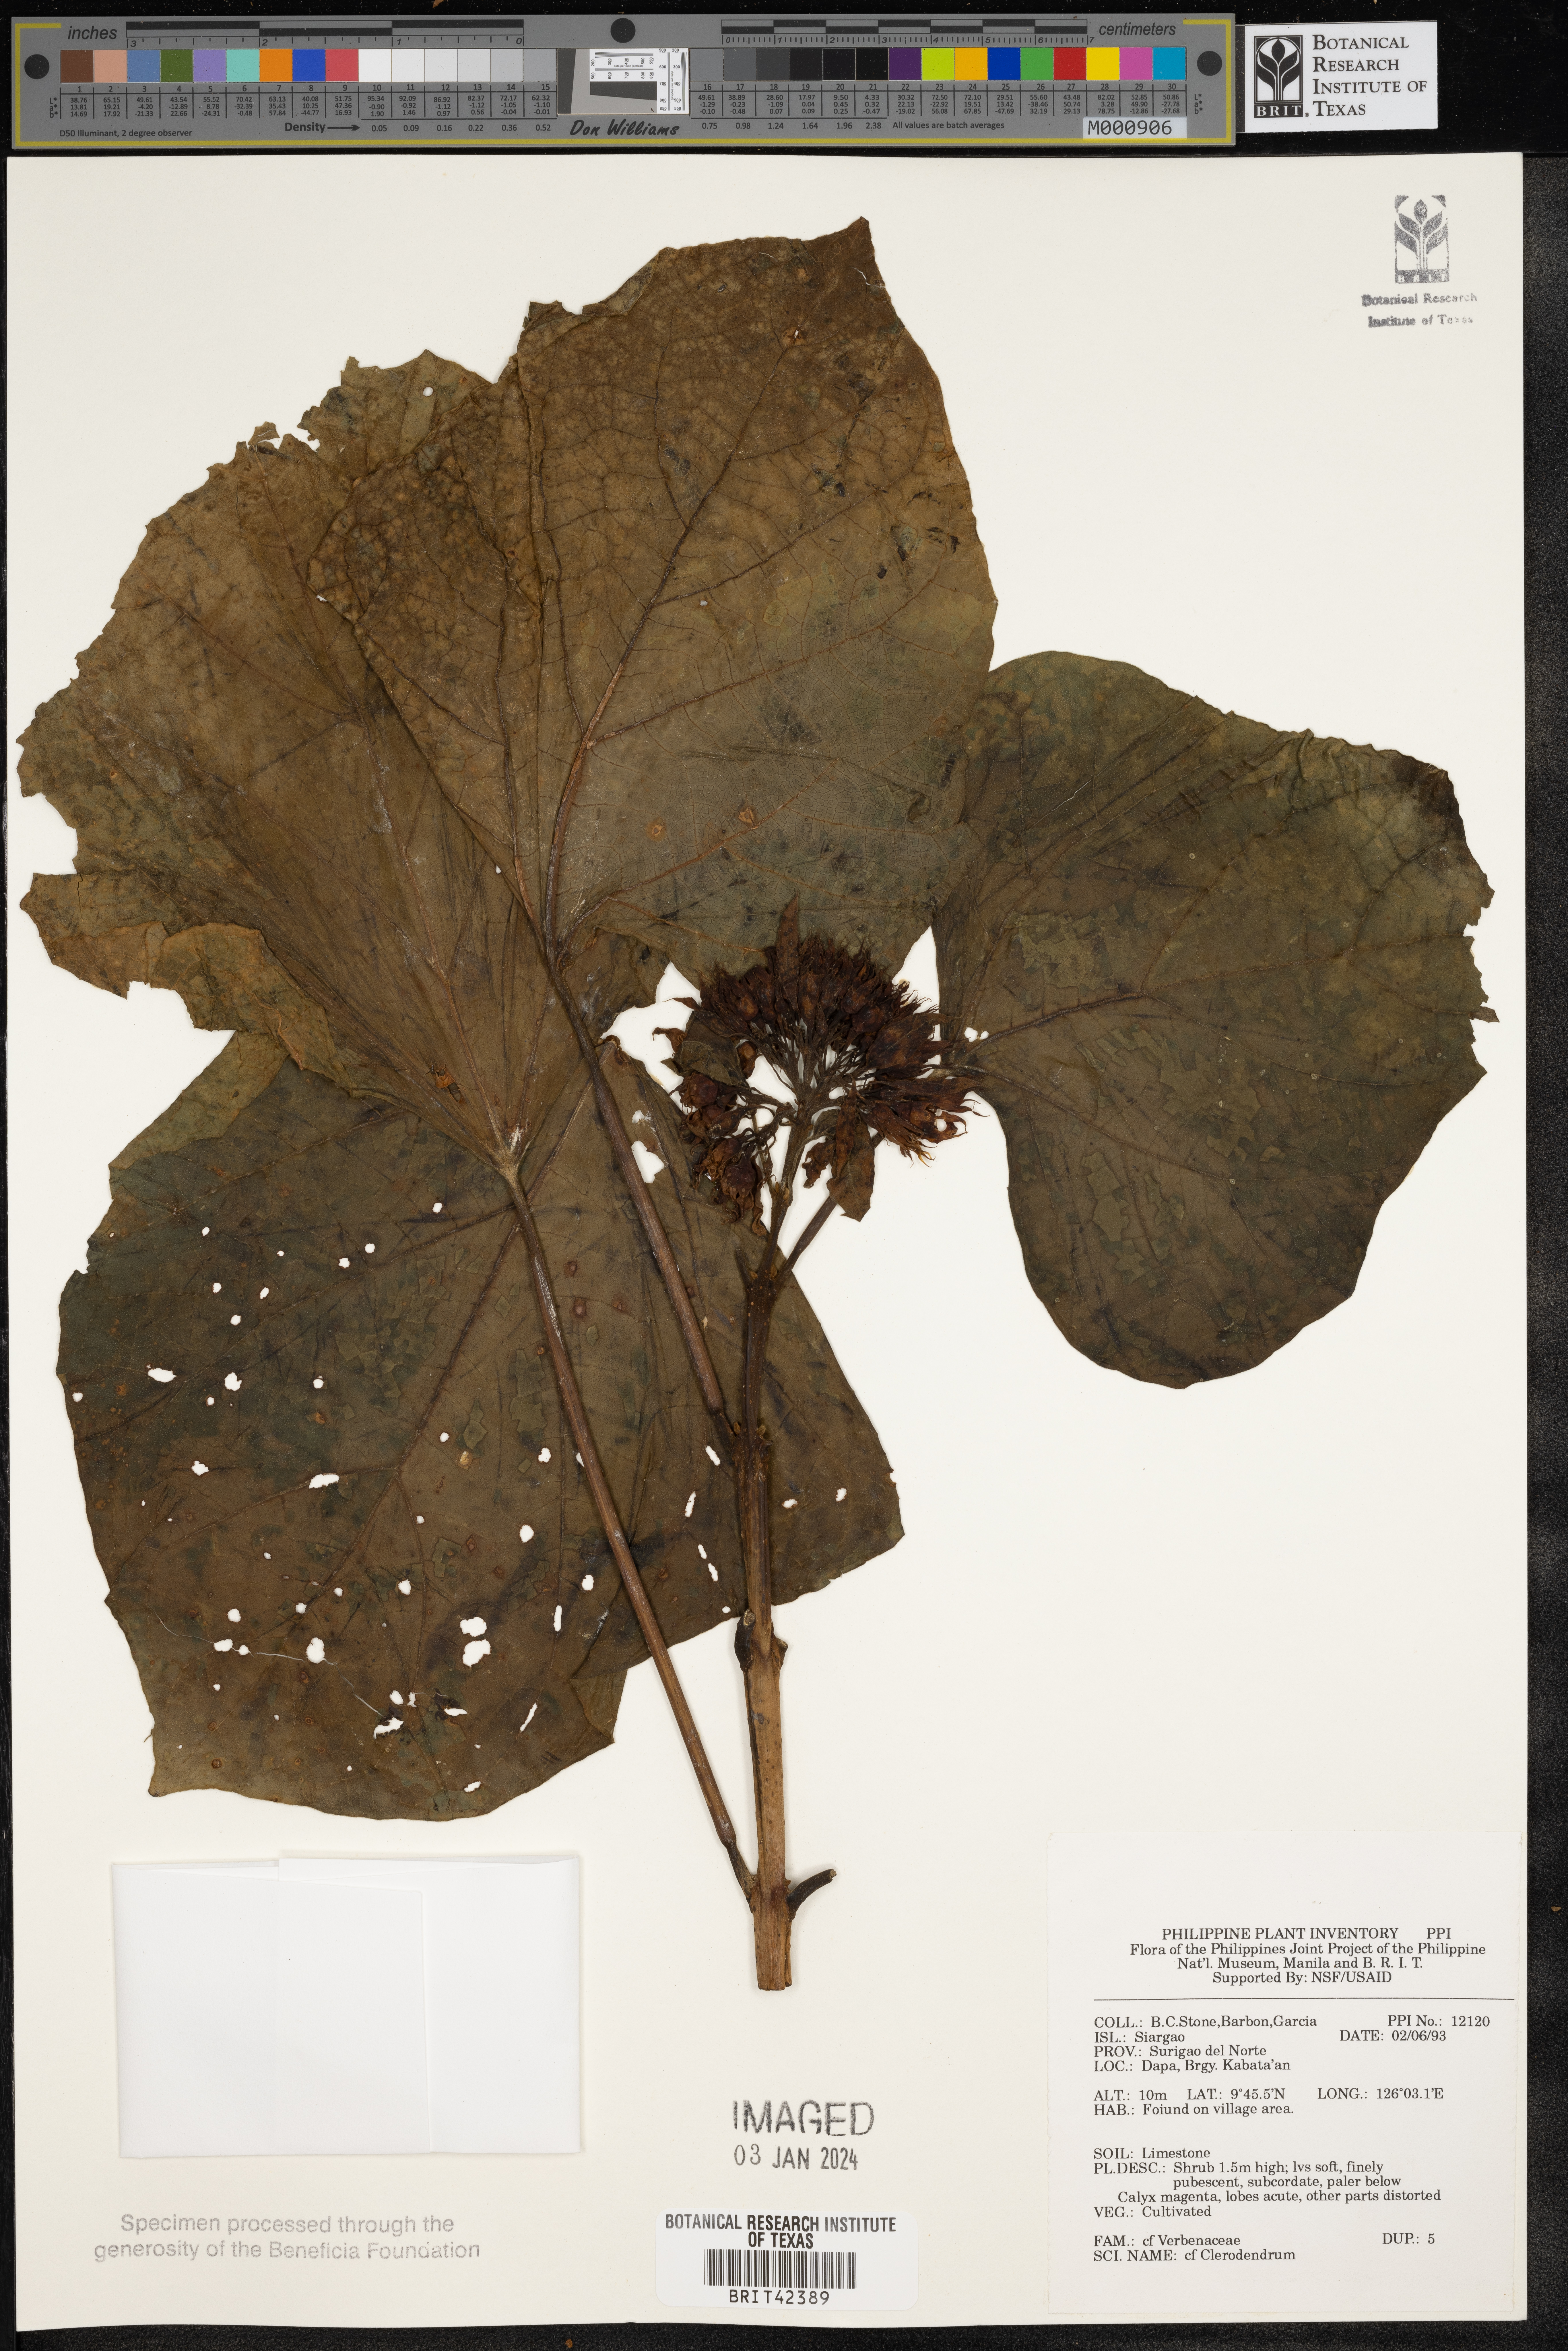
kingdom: Plantae
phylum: Tracheophyta
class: Magnoliopsida
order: Lamiales
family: Lamiaceae
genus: Clerodendrum
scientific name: Clerodendrum
